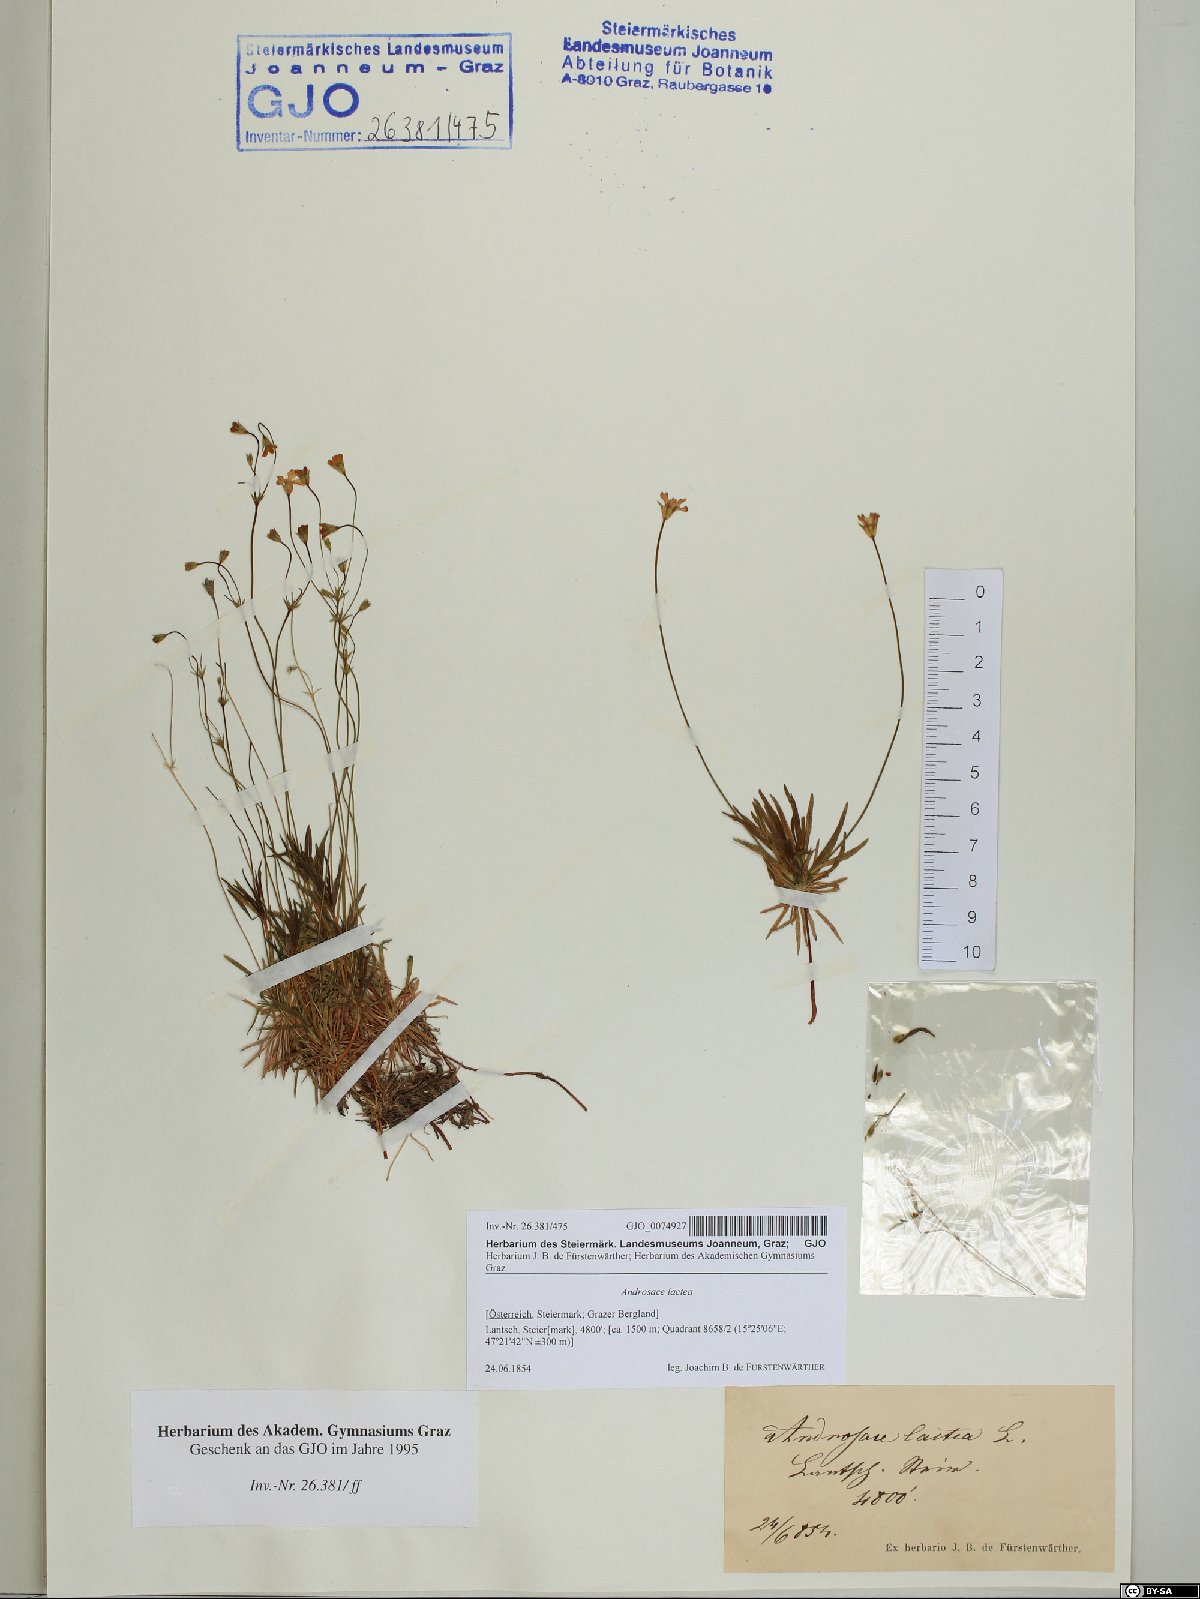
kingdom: Plantae
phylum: Tracheophyta
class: Magnoliopsida
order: Ericales
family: Primulaceae
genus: Androsace
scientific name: Androsace lactea
